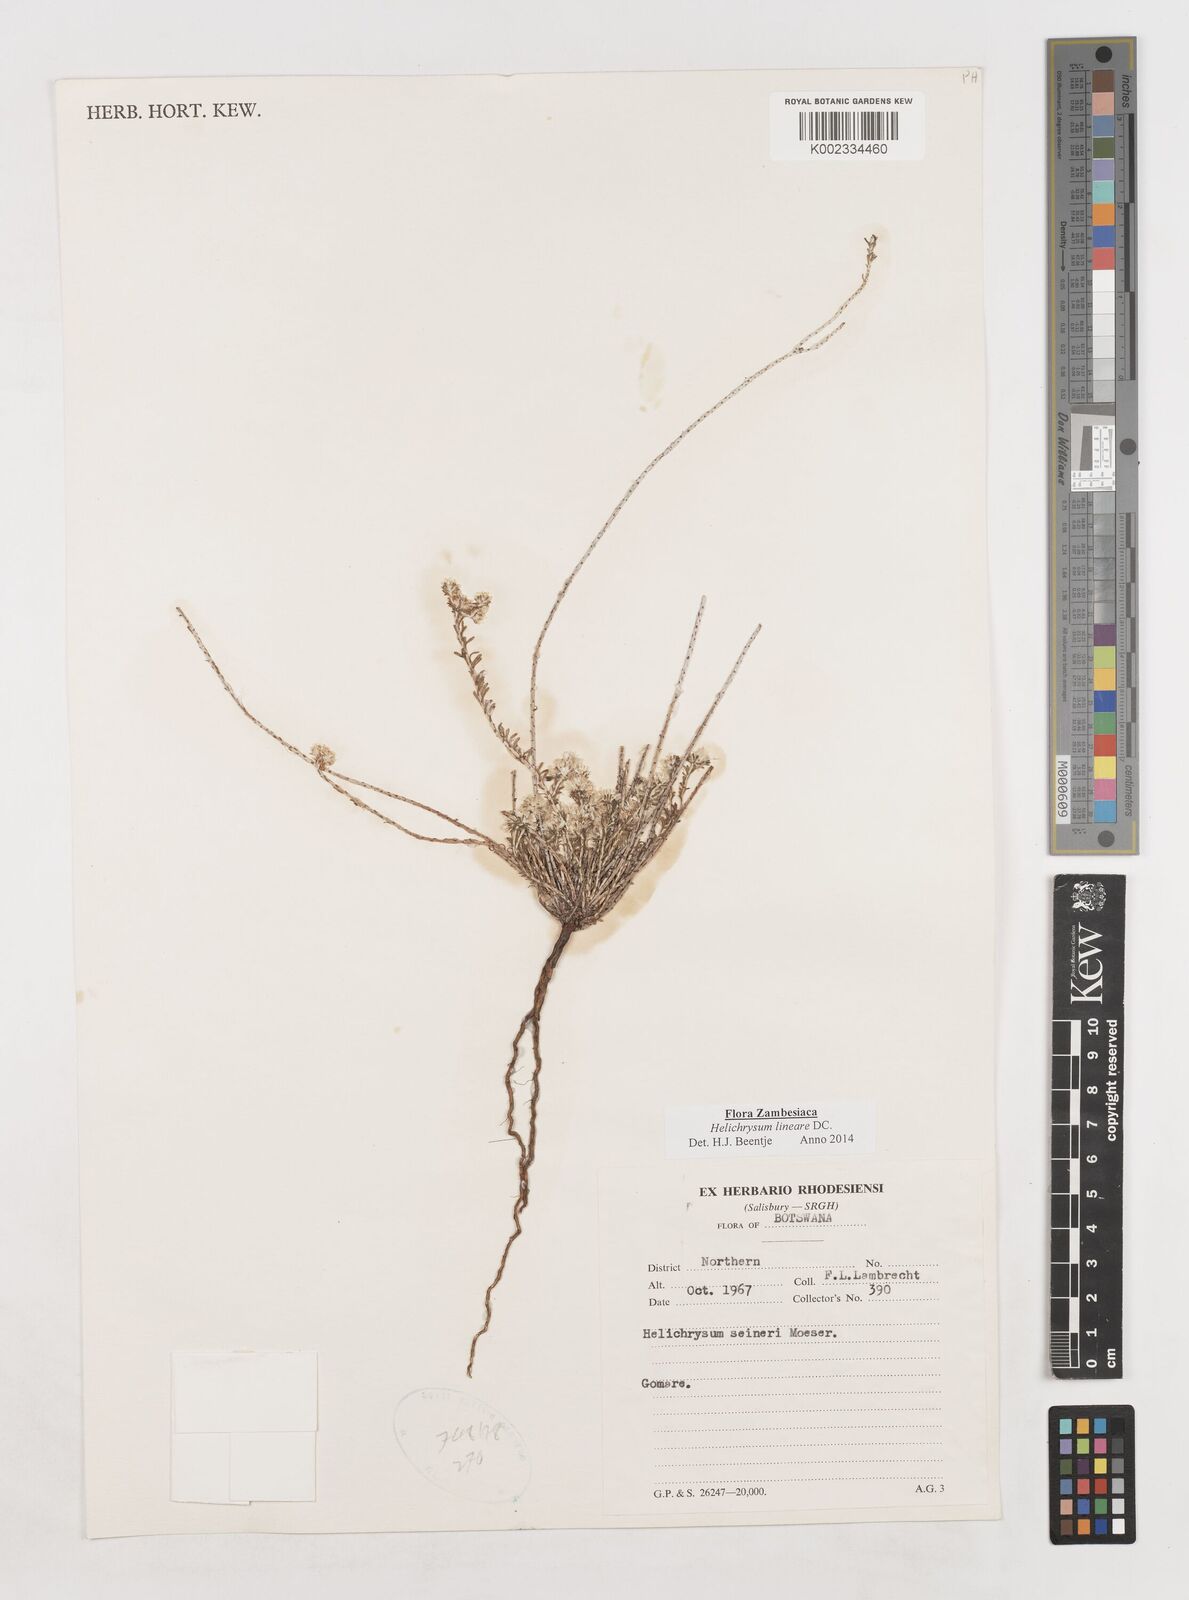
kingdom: Plantae
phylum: Tracheophyta
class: Magnoliopsida
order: Asterales
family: Asteraceae
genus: Helichrysum
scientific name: Helichrysum lineare
